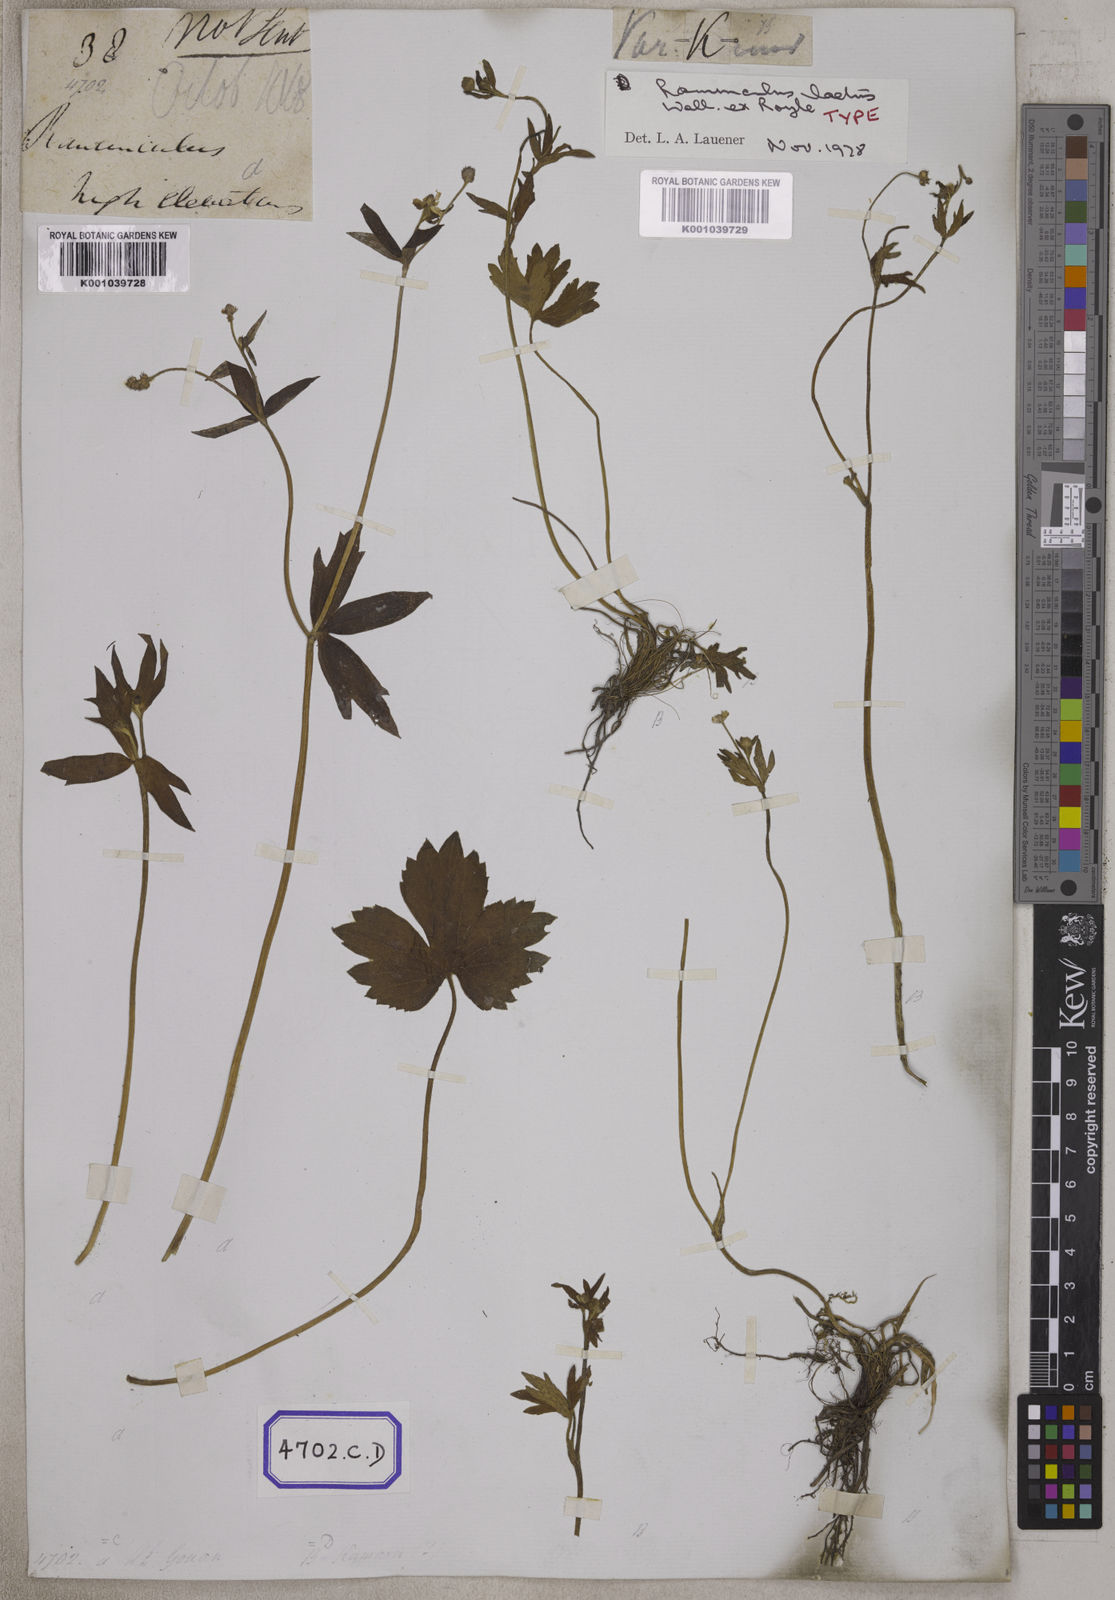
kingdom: Plantae
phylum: Tracheophyta
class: Magnoliopsida
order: Ranunculales
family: Ranunculaceae
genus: Ranunculus
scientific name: Ranunculus
